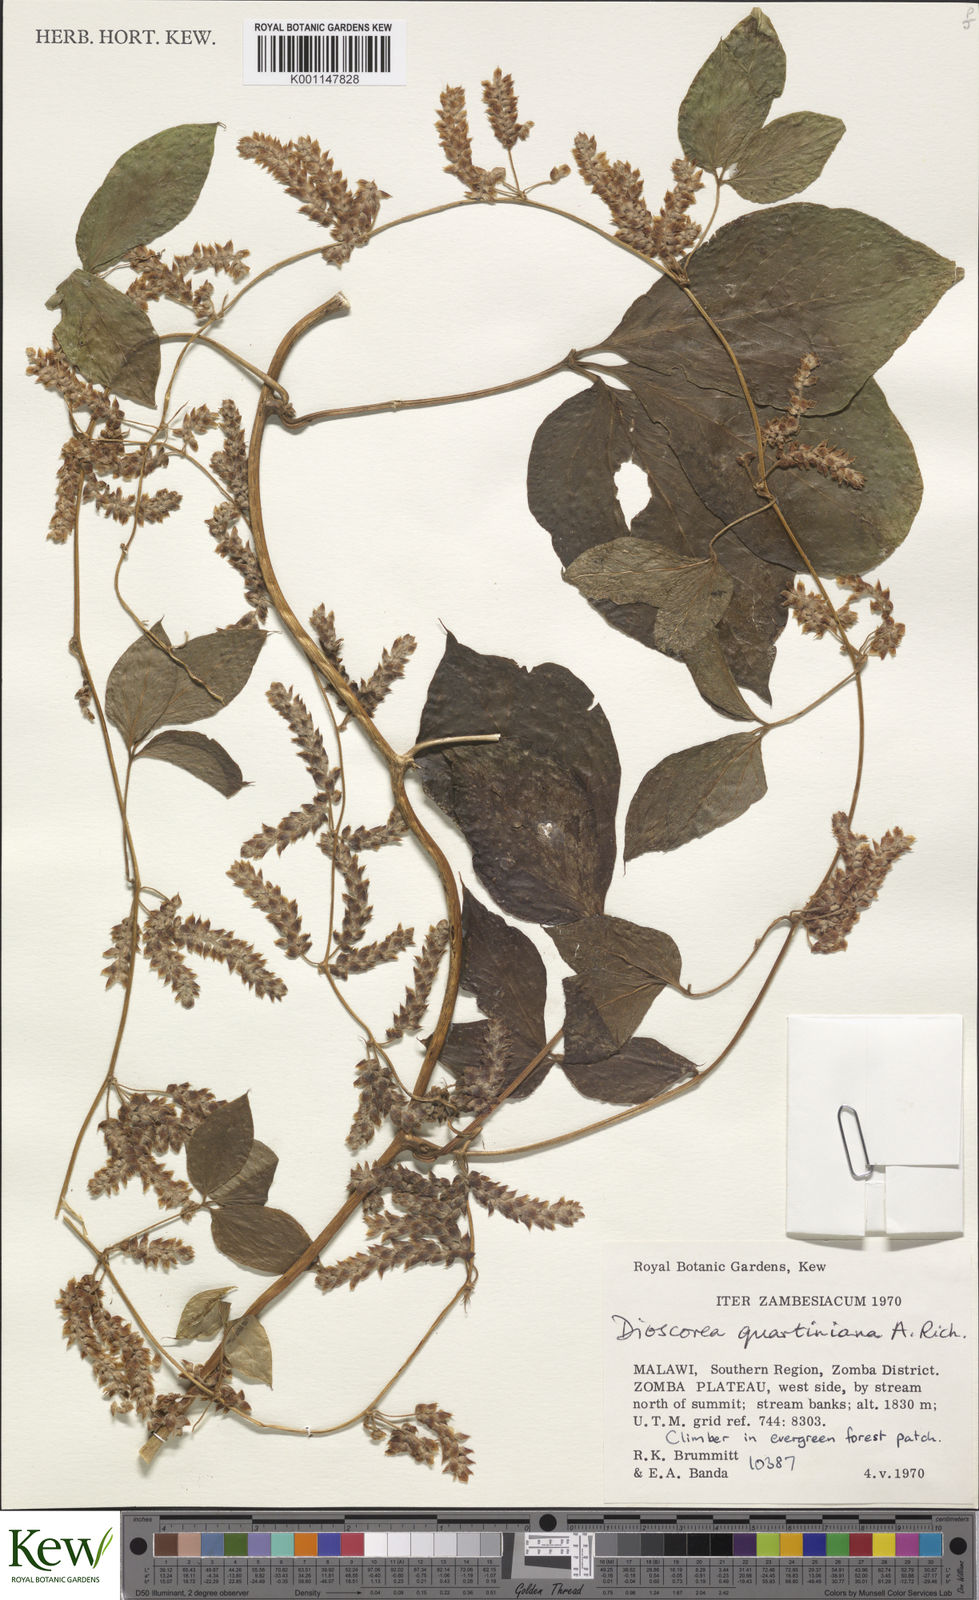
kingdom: Plantae
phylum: Tracheophyta
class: Liliopsida
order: Dioscoreales
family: Dioscoreaceae
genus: Dioscorea
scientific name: Dioscorea quartiniana
